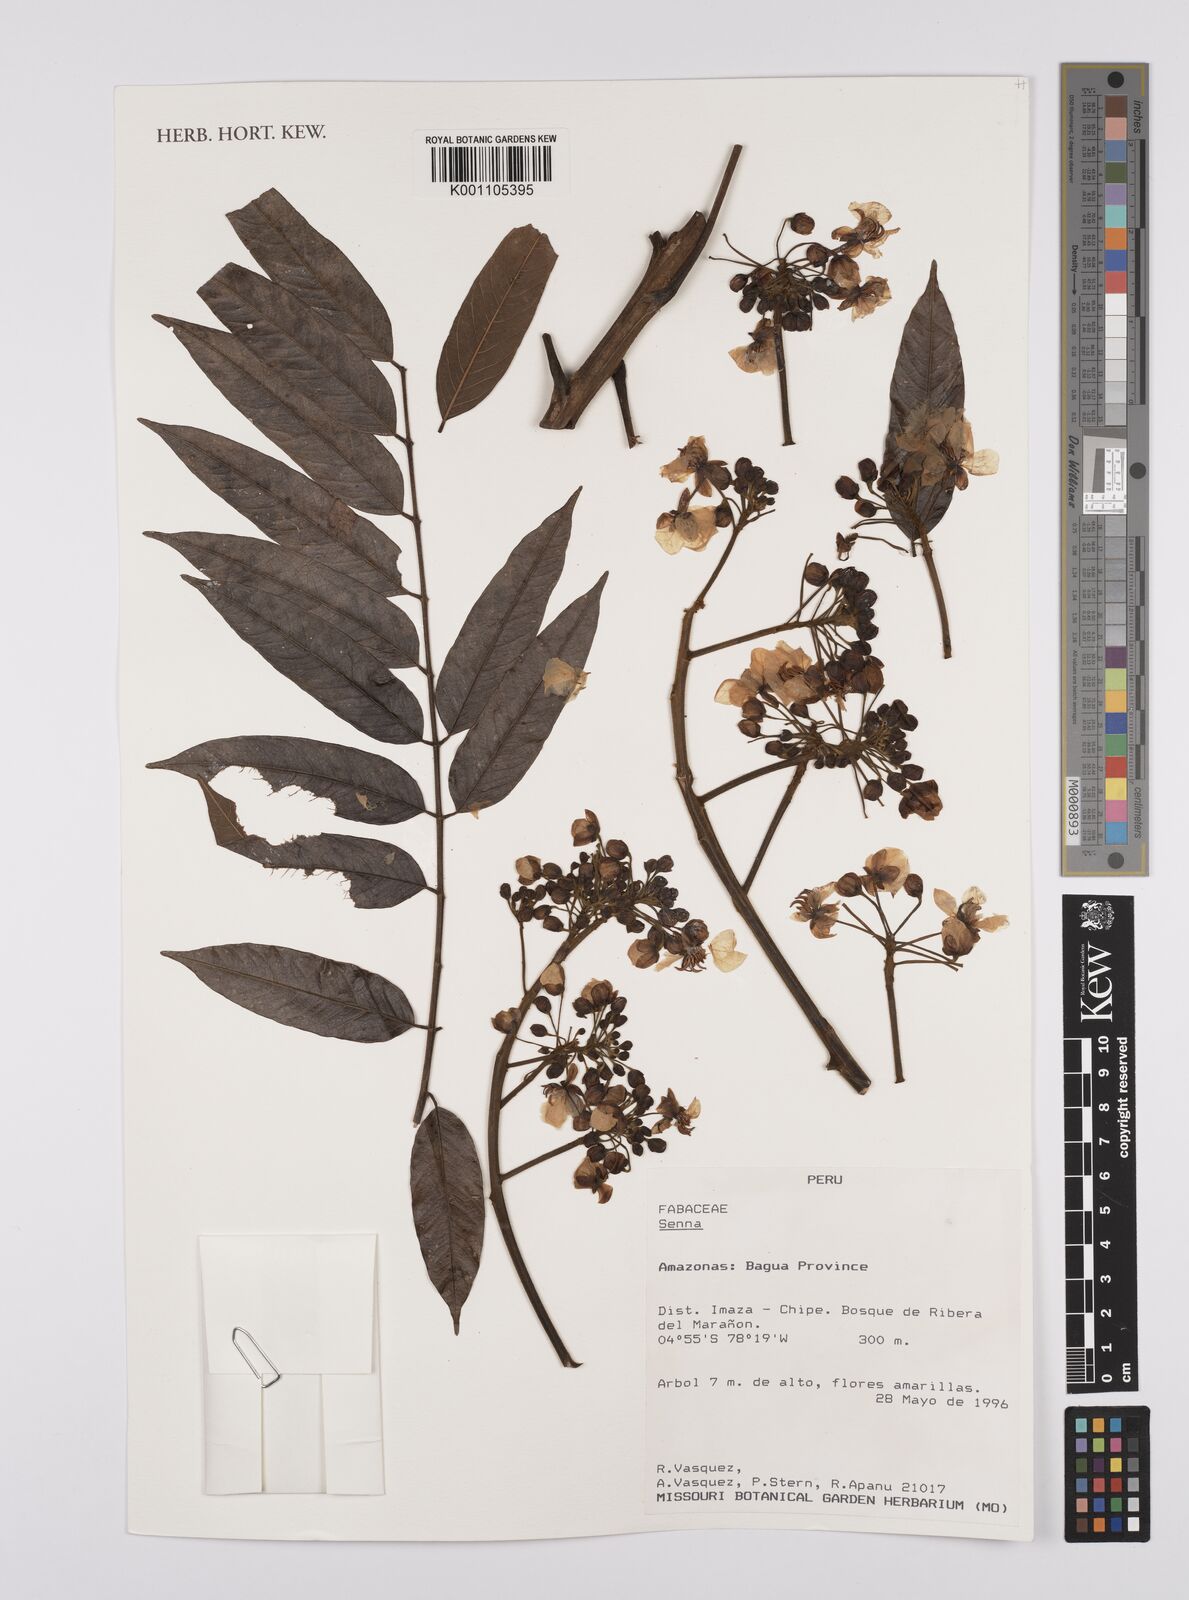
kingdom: Plantae
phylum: Tracheophyta
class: Magnoliopsida
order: Fabales
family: Fabaceae
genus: Senna
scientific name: Senna
